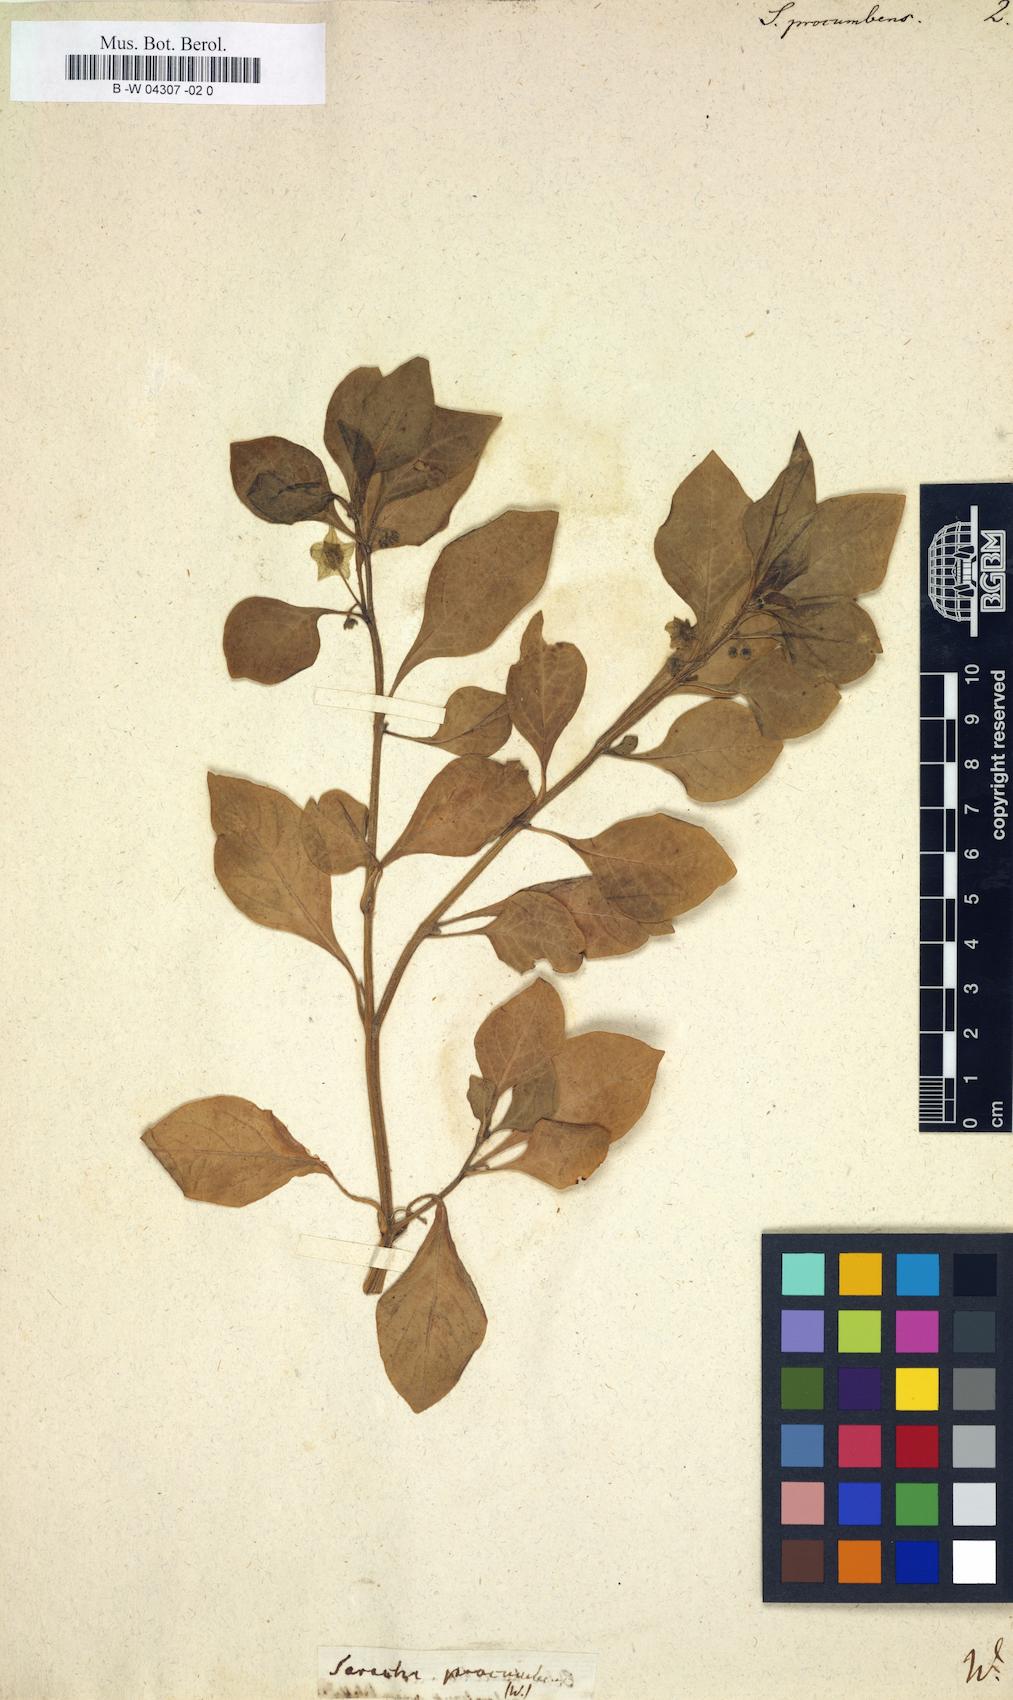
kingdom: Plantae
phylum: Tracheophyta
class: Magnoliopsida
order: Solanales
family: Solanaceae
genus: Atropa
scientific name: Atropa
